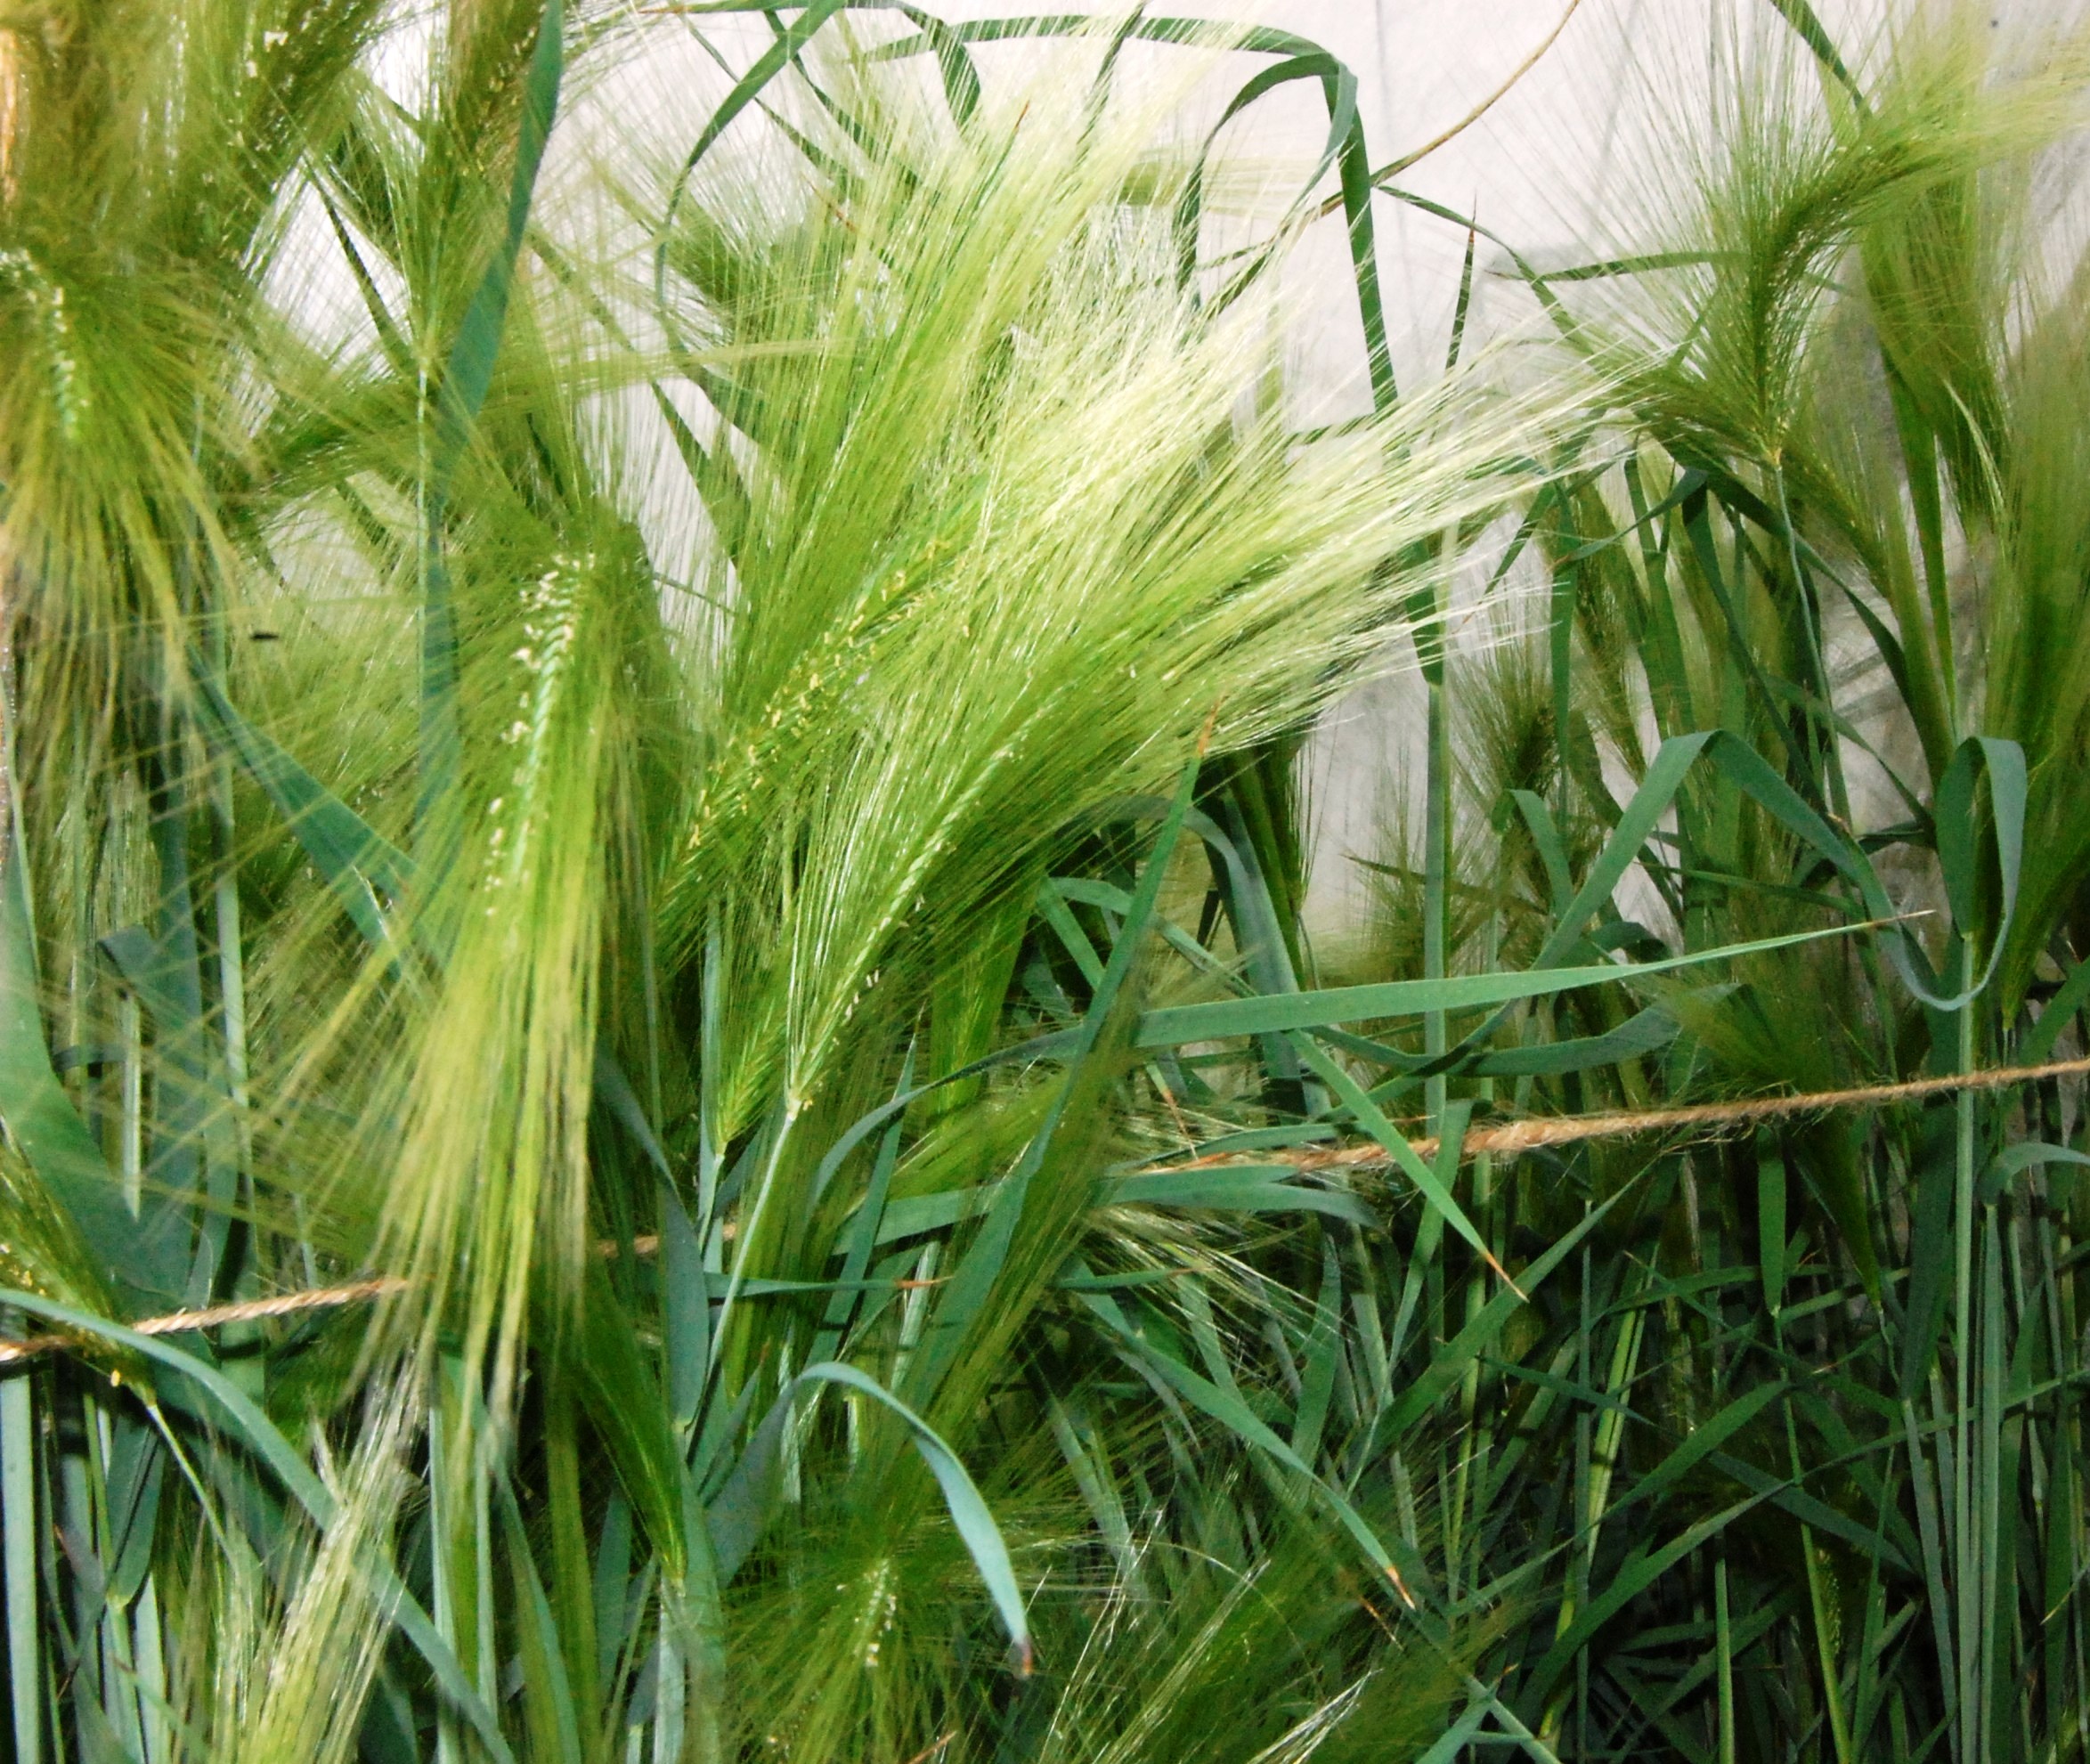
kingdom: Plantae
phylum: Tracheophyta
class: Liliopsida
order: Poales
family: Poaceae
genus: Hordeum
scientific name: Hordeum jubatum
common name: Foxtail barley
